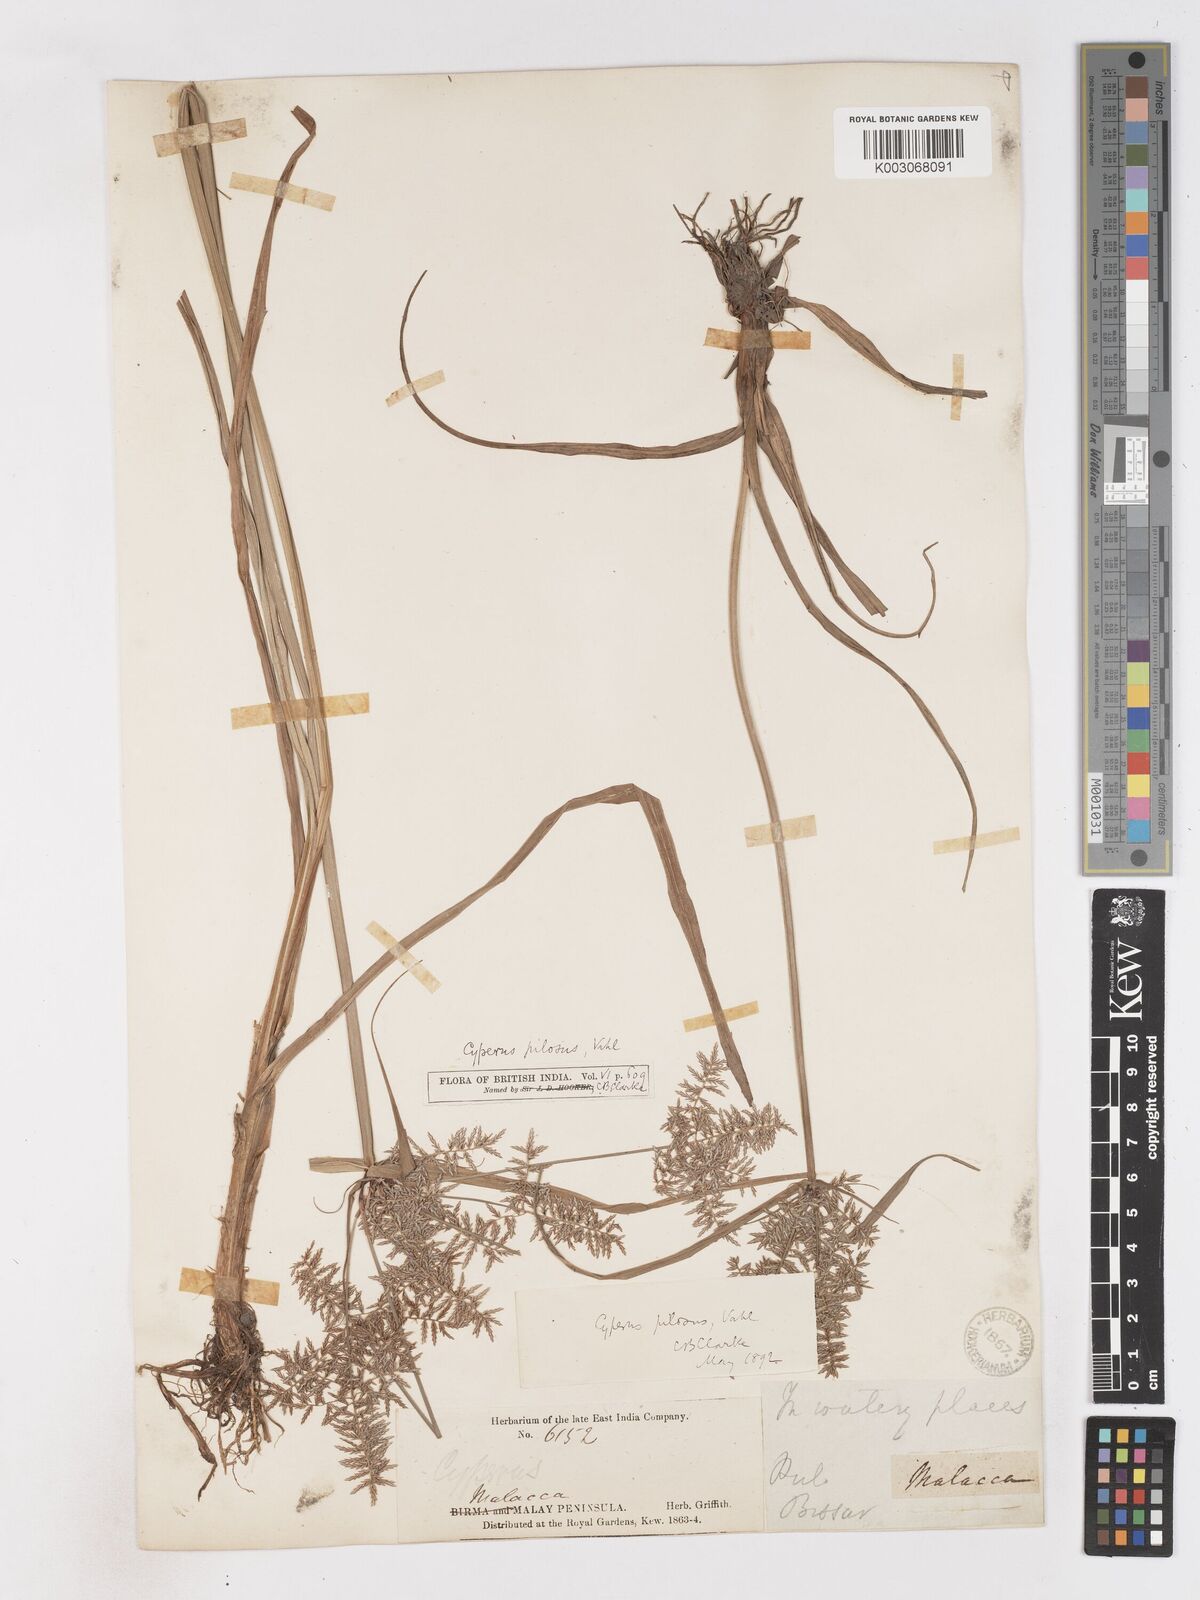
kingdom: Plantae
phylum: Tracheophyta
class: Liliopsida
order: Poales
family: Cyperaceae
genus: Cyperus
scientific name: Cyperus pilosus
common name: Fuzzy flatsedge
